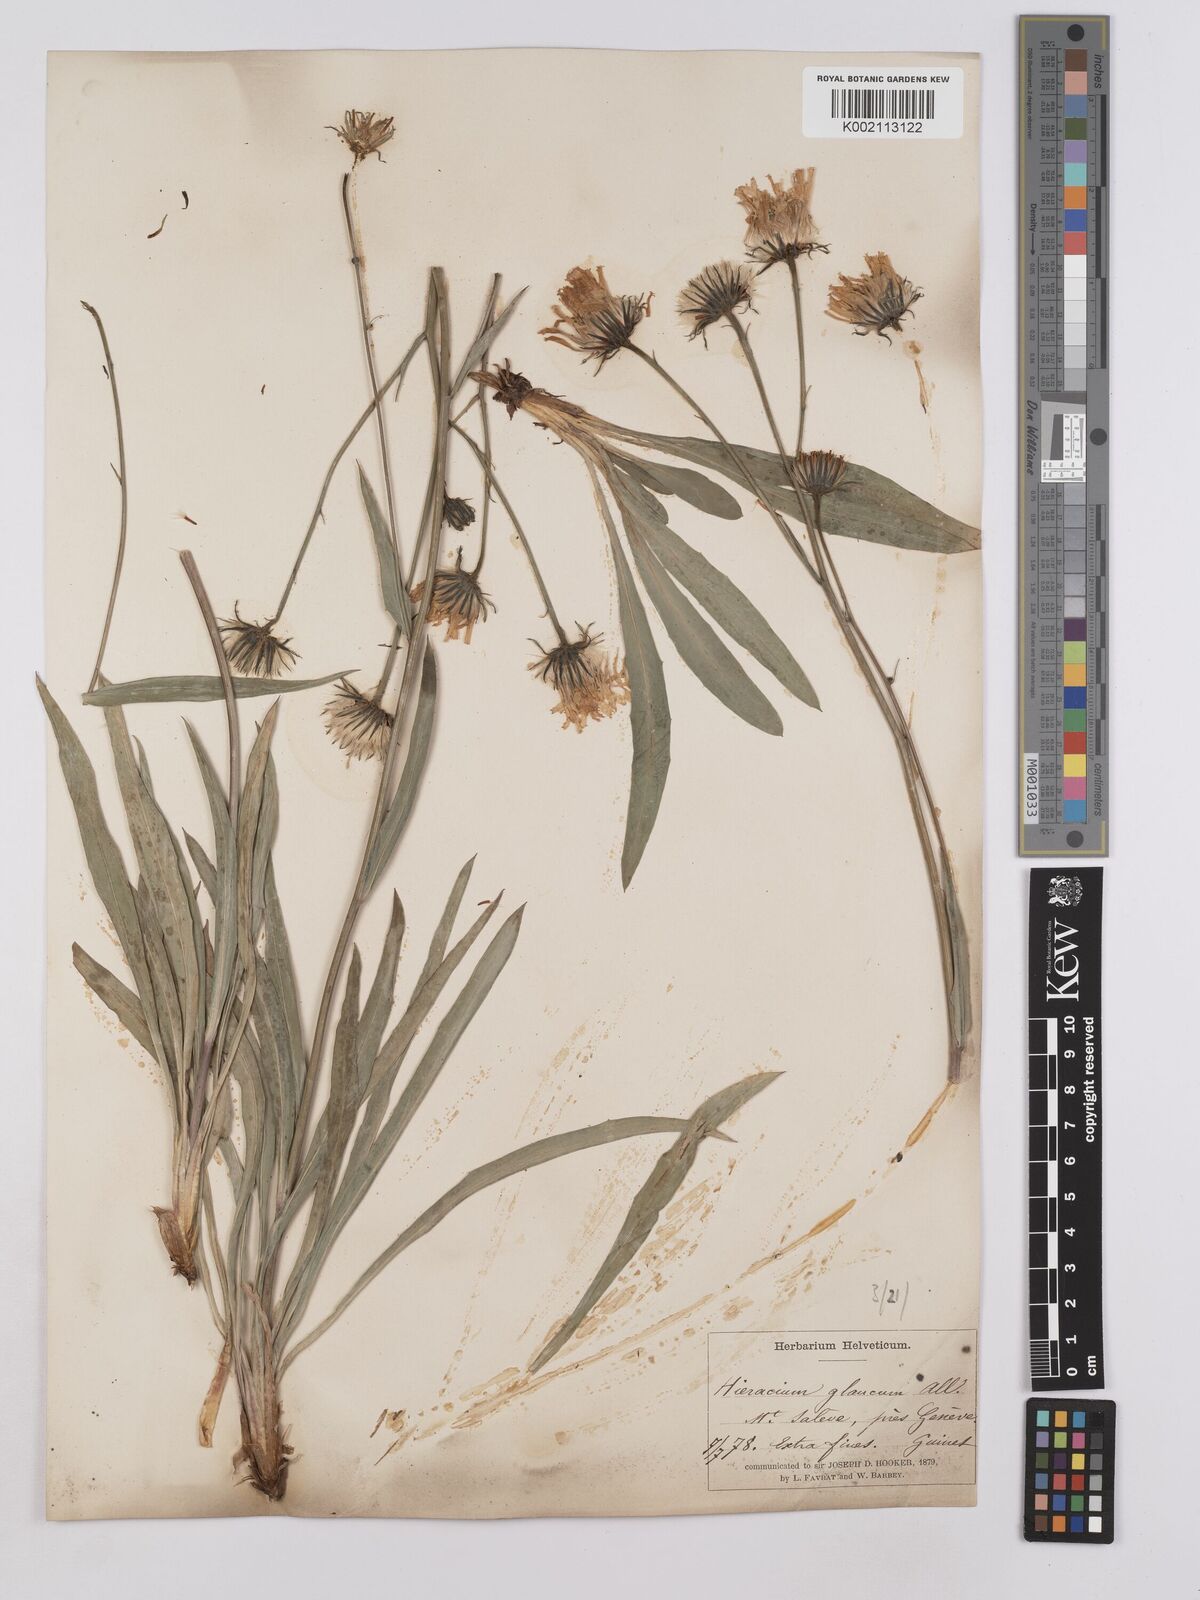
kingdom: Plantae
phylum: Tracheophyta
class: Magnoliopsida
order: Asterales
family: Asteraceae
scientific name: Asteraceae
